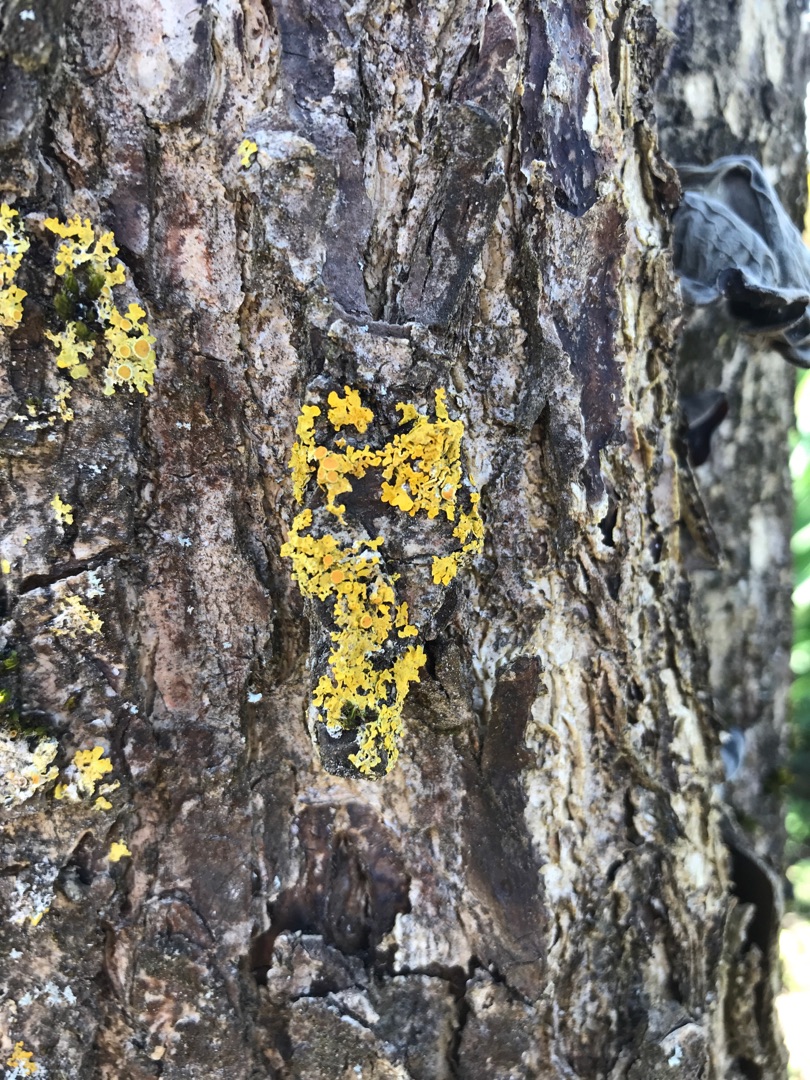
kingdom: Fungi
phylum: Ascomycota
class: Lecanoromycetes
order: Teloschistales
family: Teloschistaceae
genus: Xanthoria
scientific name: Xanthoria parietina
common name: Almindelig væggelav
